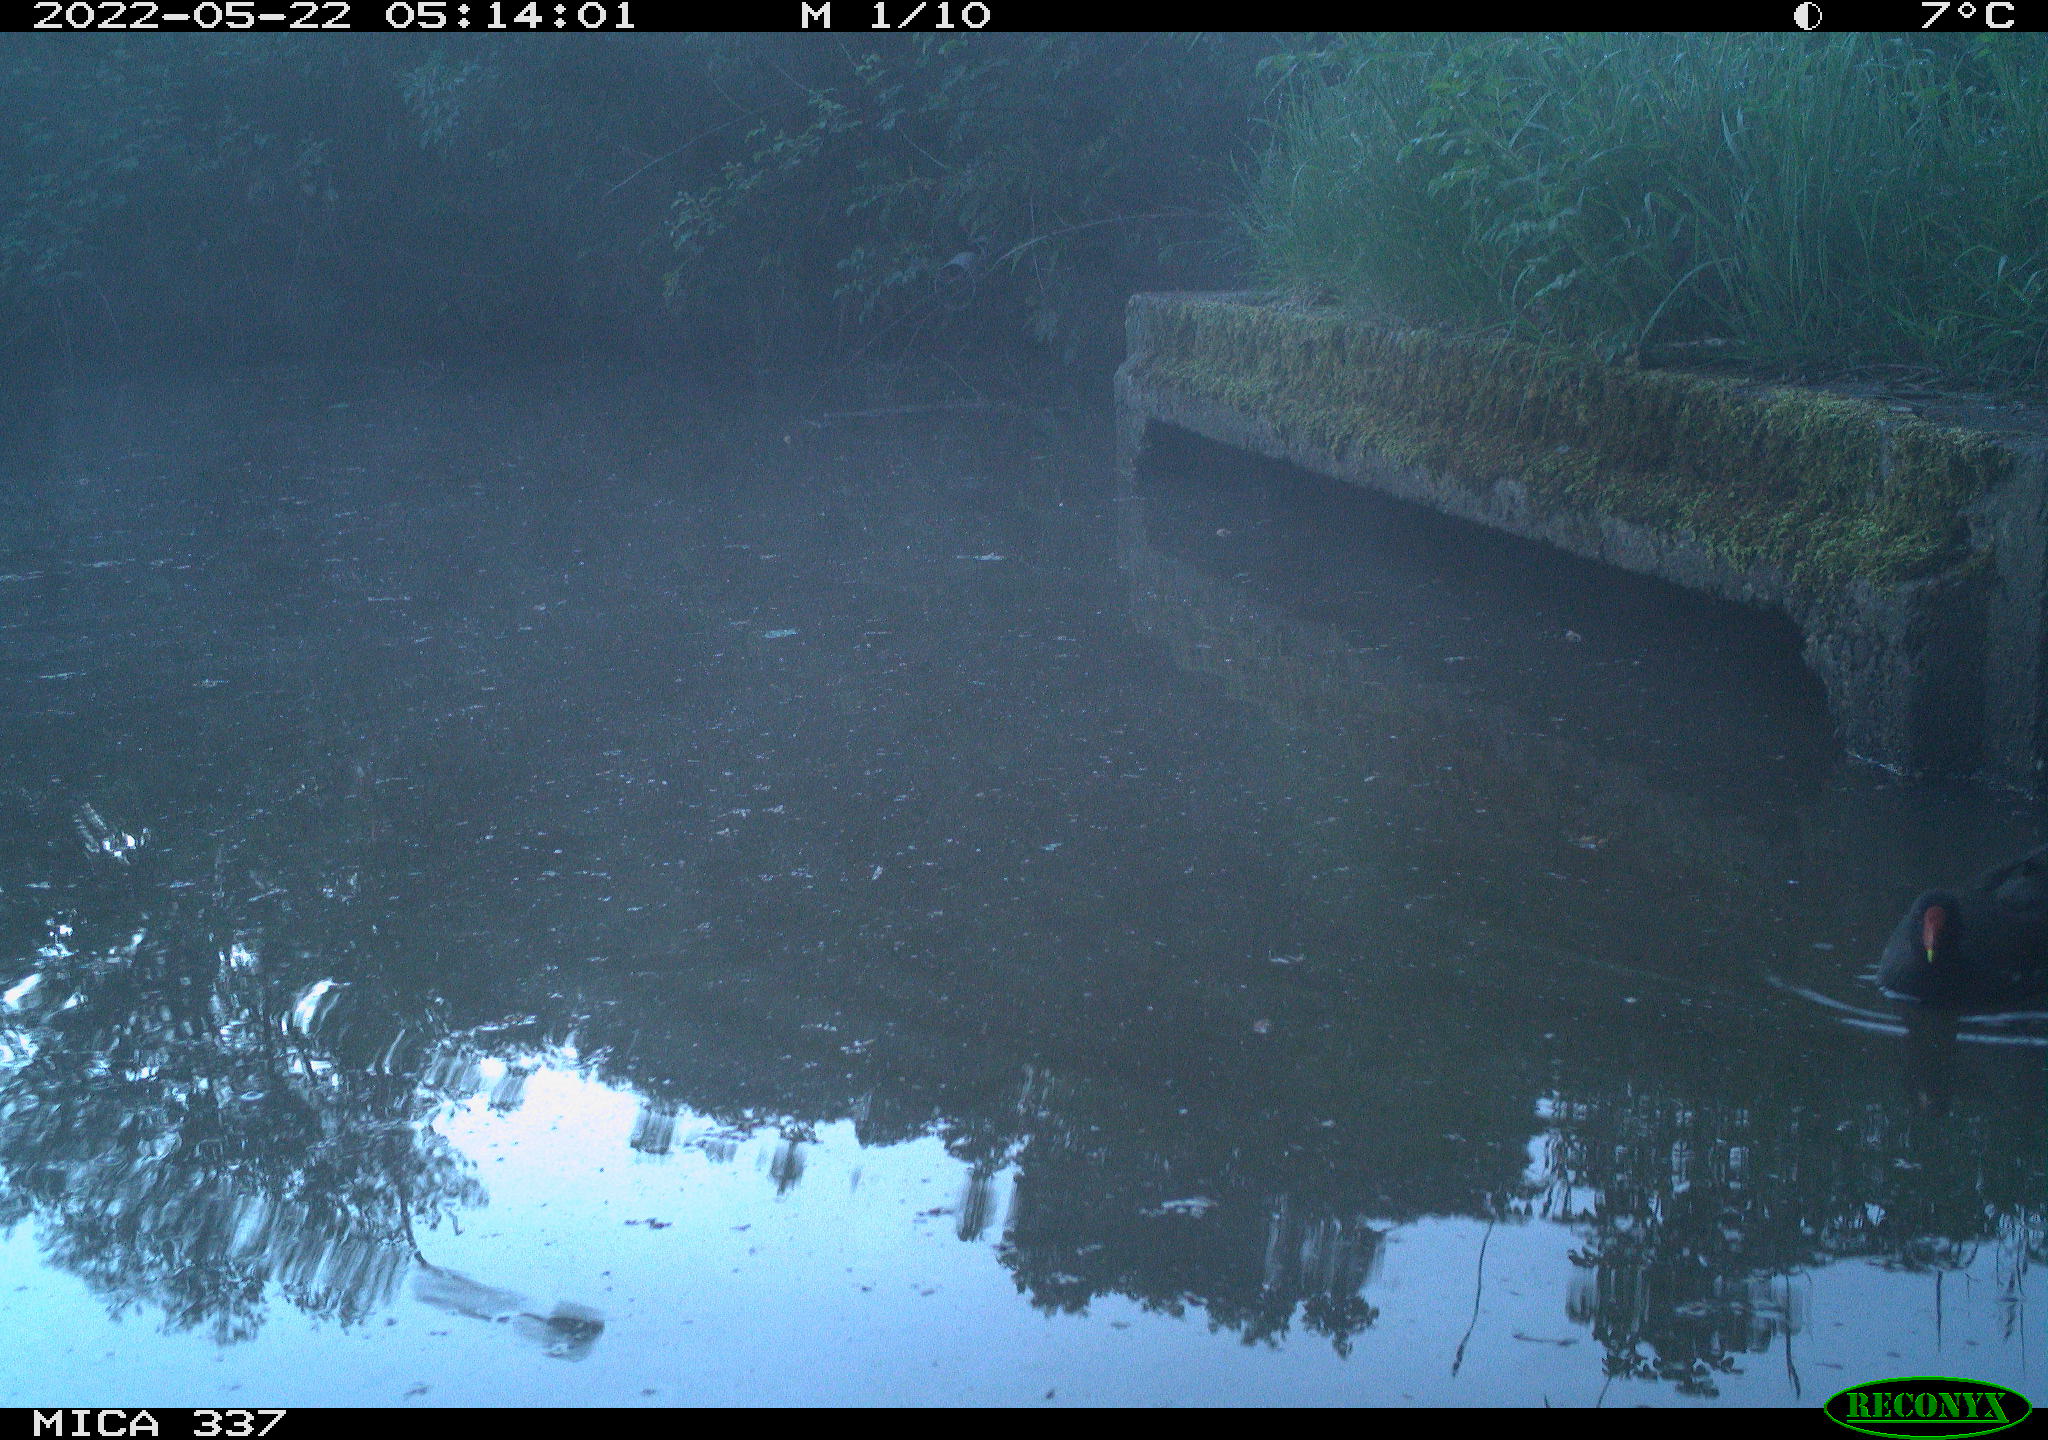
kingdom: Animalia
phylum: Chordata
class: Aves
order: Gruiformes
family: Rallidae
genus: Gallinula
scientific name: Gallinula chloropus
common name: Common moorhen
